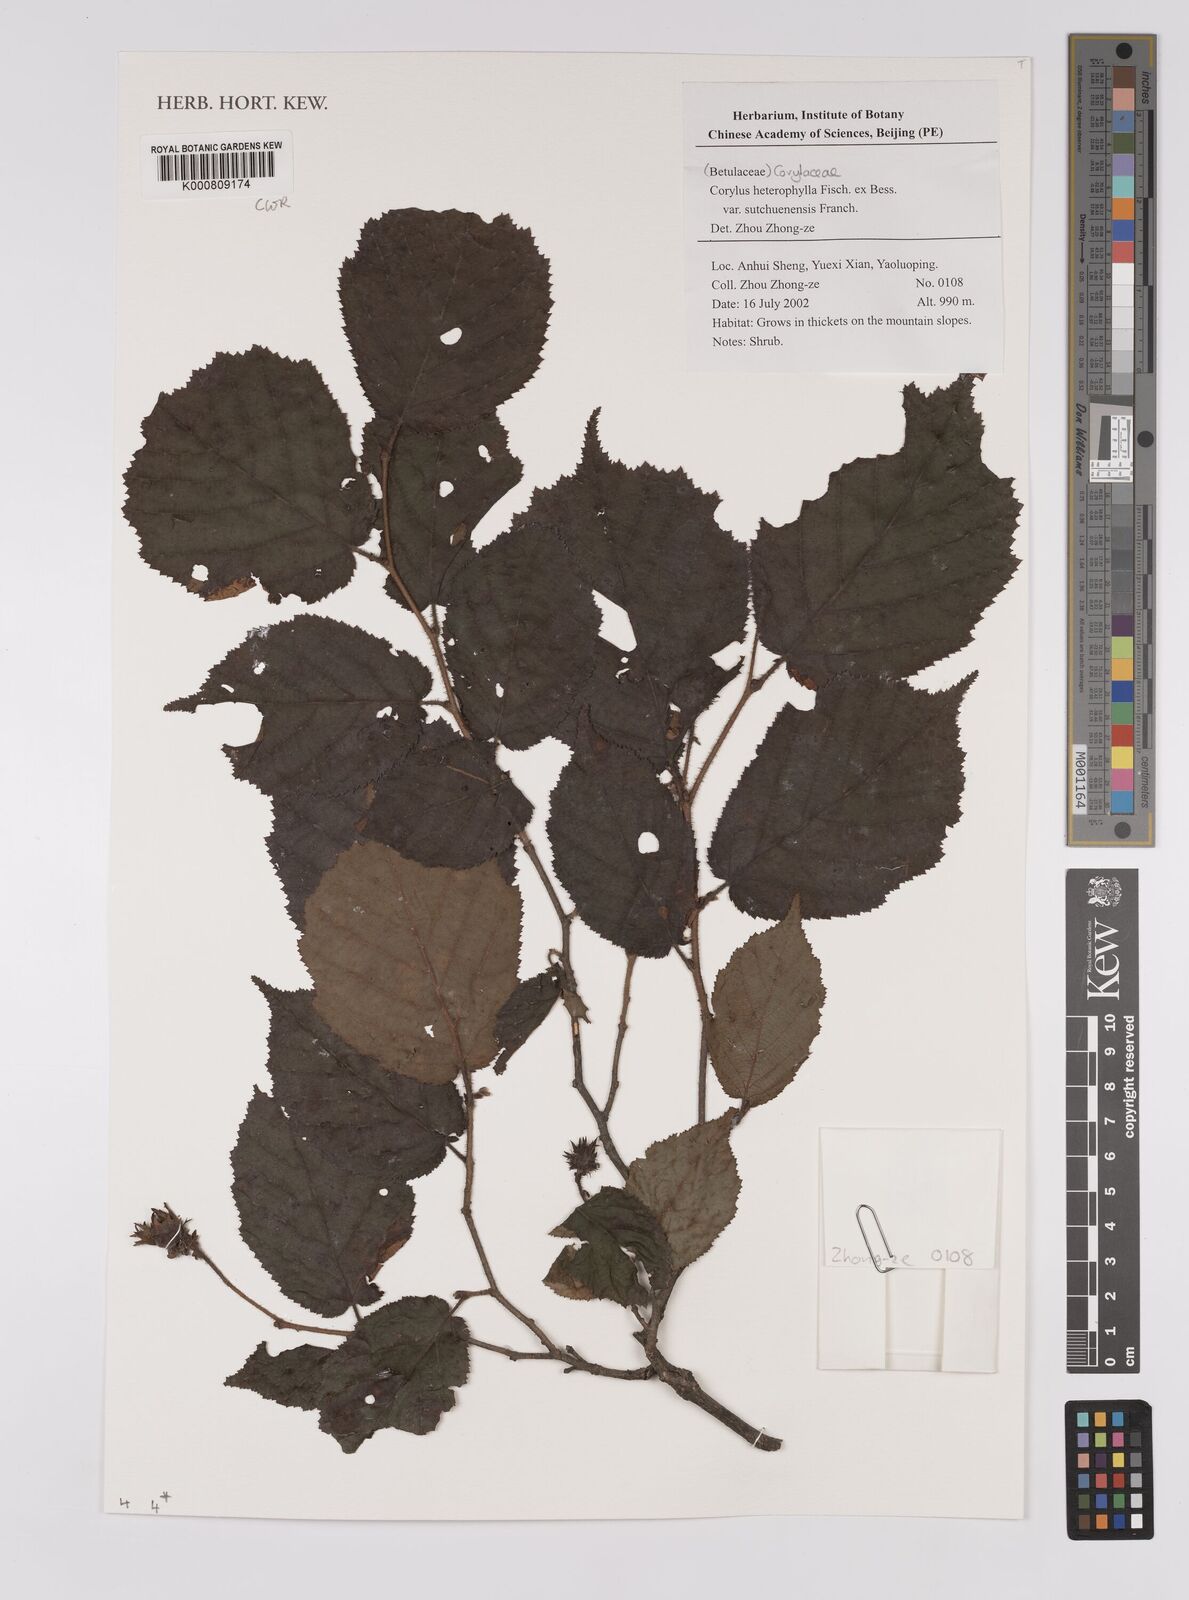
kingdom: Plantae
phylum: Tracheophyta
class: Magnoliopsida
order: Fagales
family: Betulaceae
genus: Corylus
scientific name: Corylus
